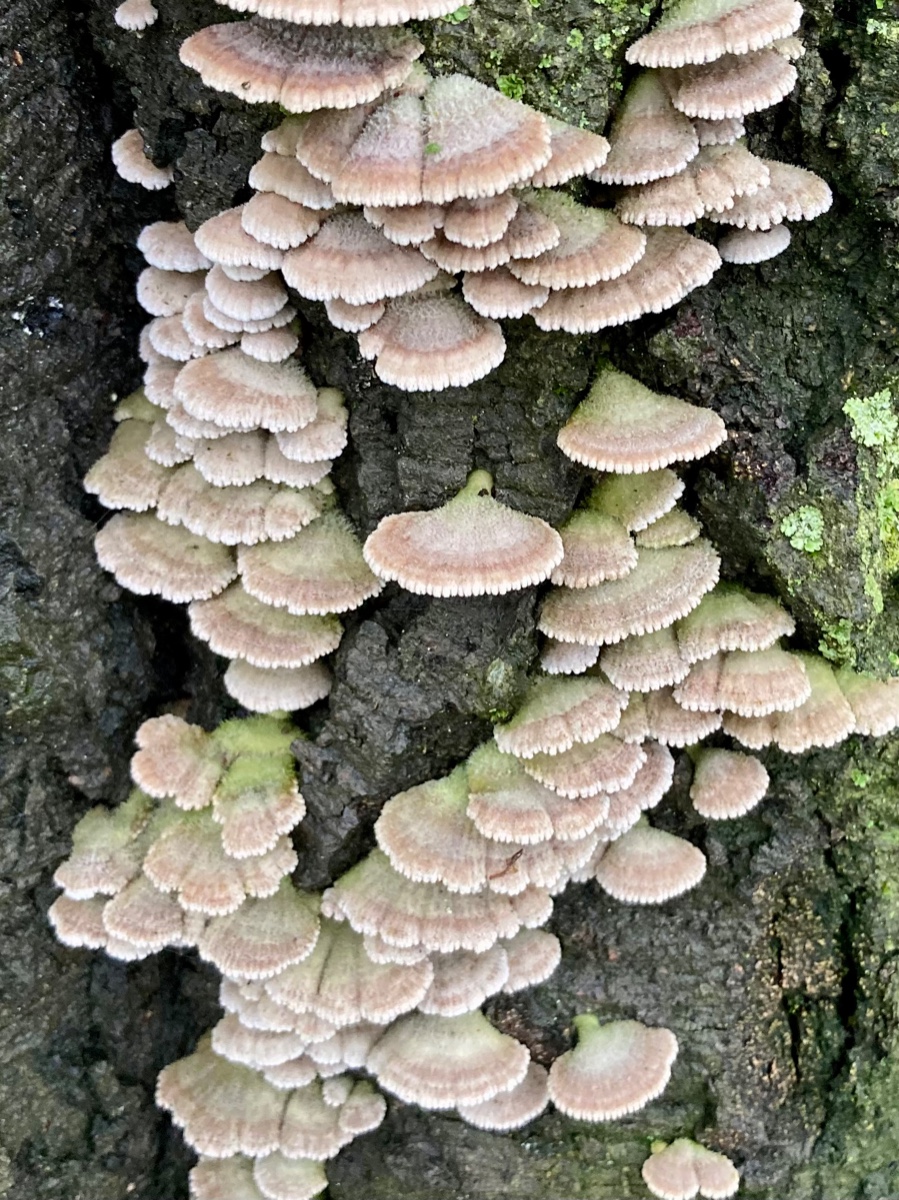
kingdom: Fungi
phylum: Basidiomycota
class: Agaricomycetes
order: Agaricales
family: Schizophyllaceae
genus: Schizophyllum
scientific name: Schizophyllum commune
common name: kløvblad
